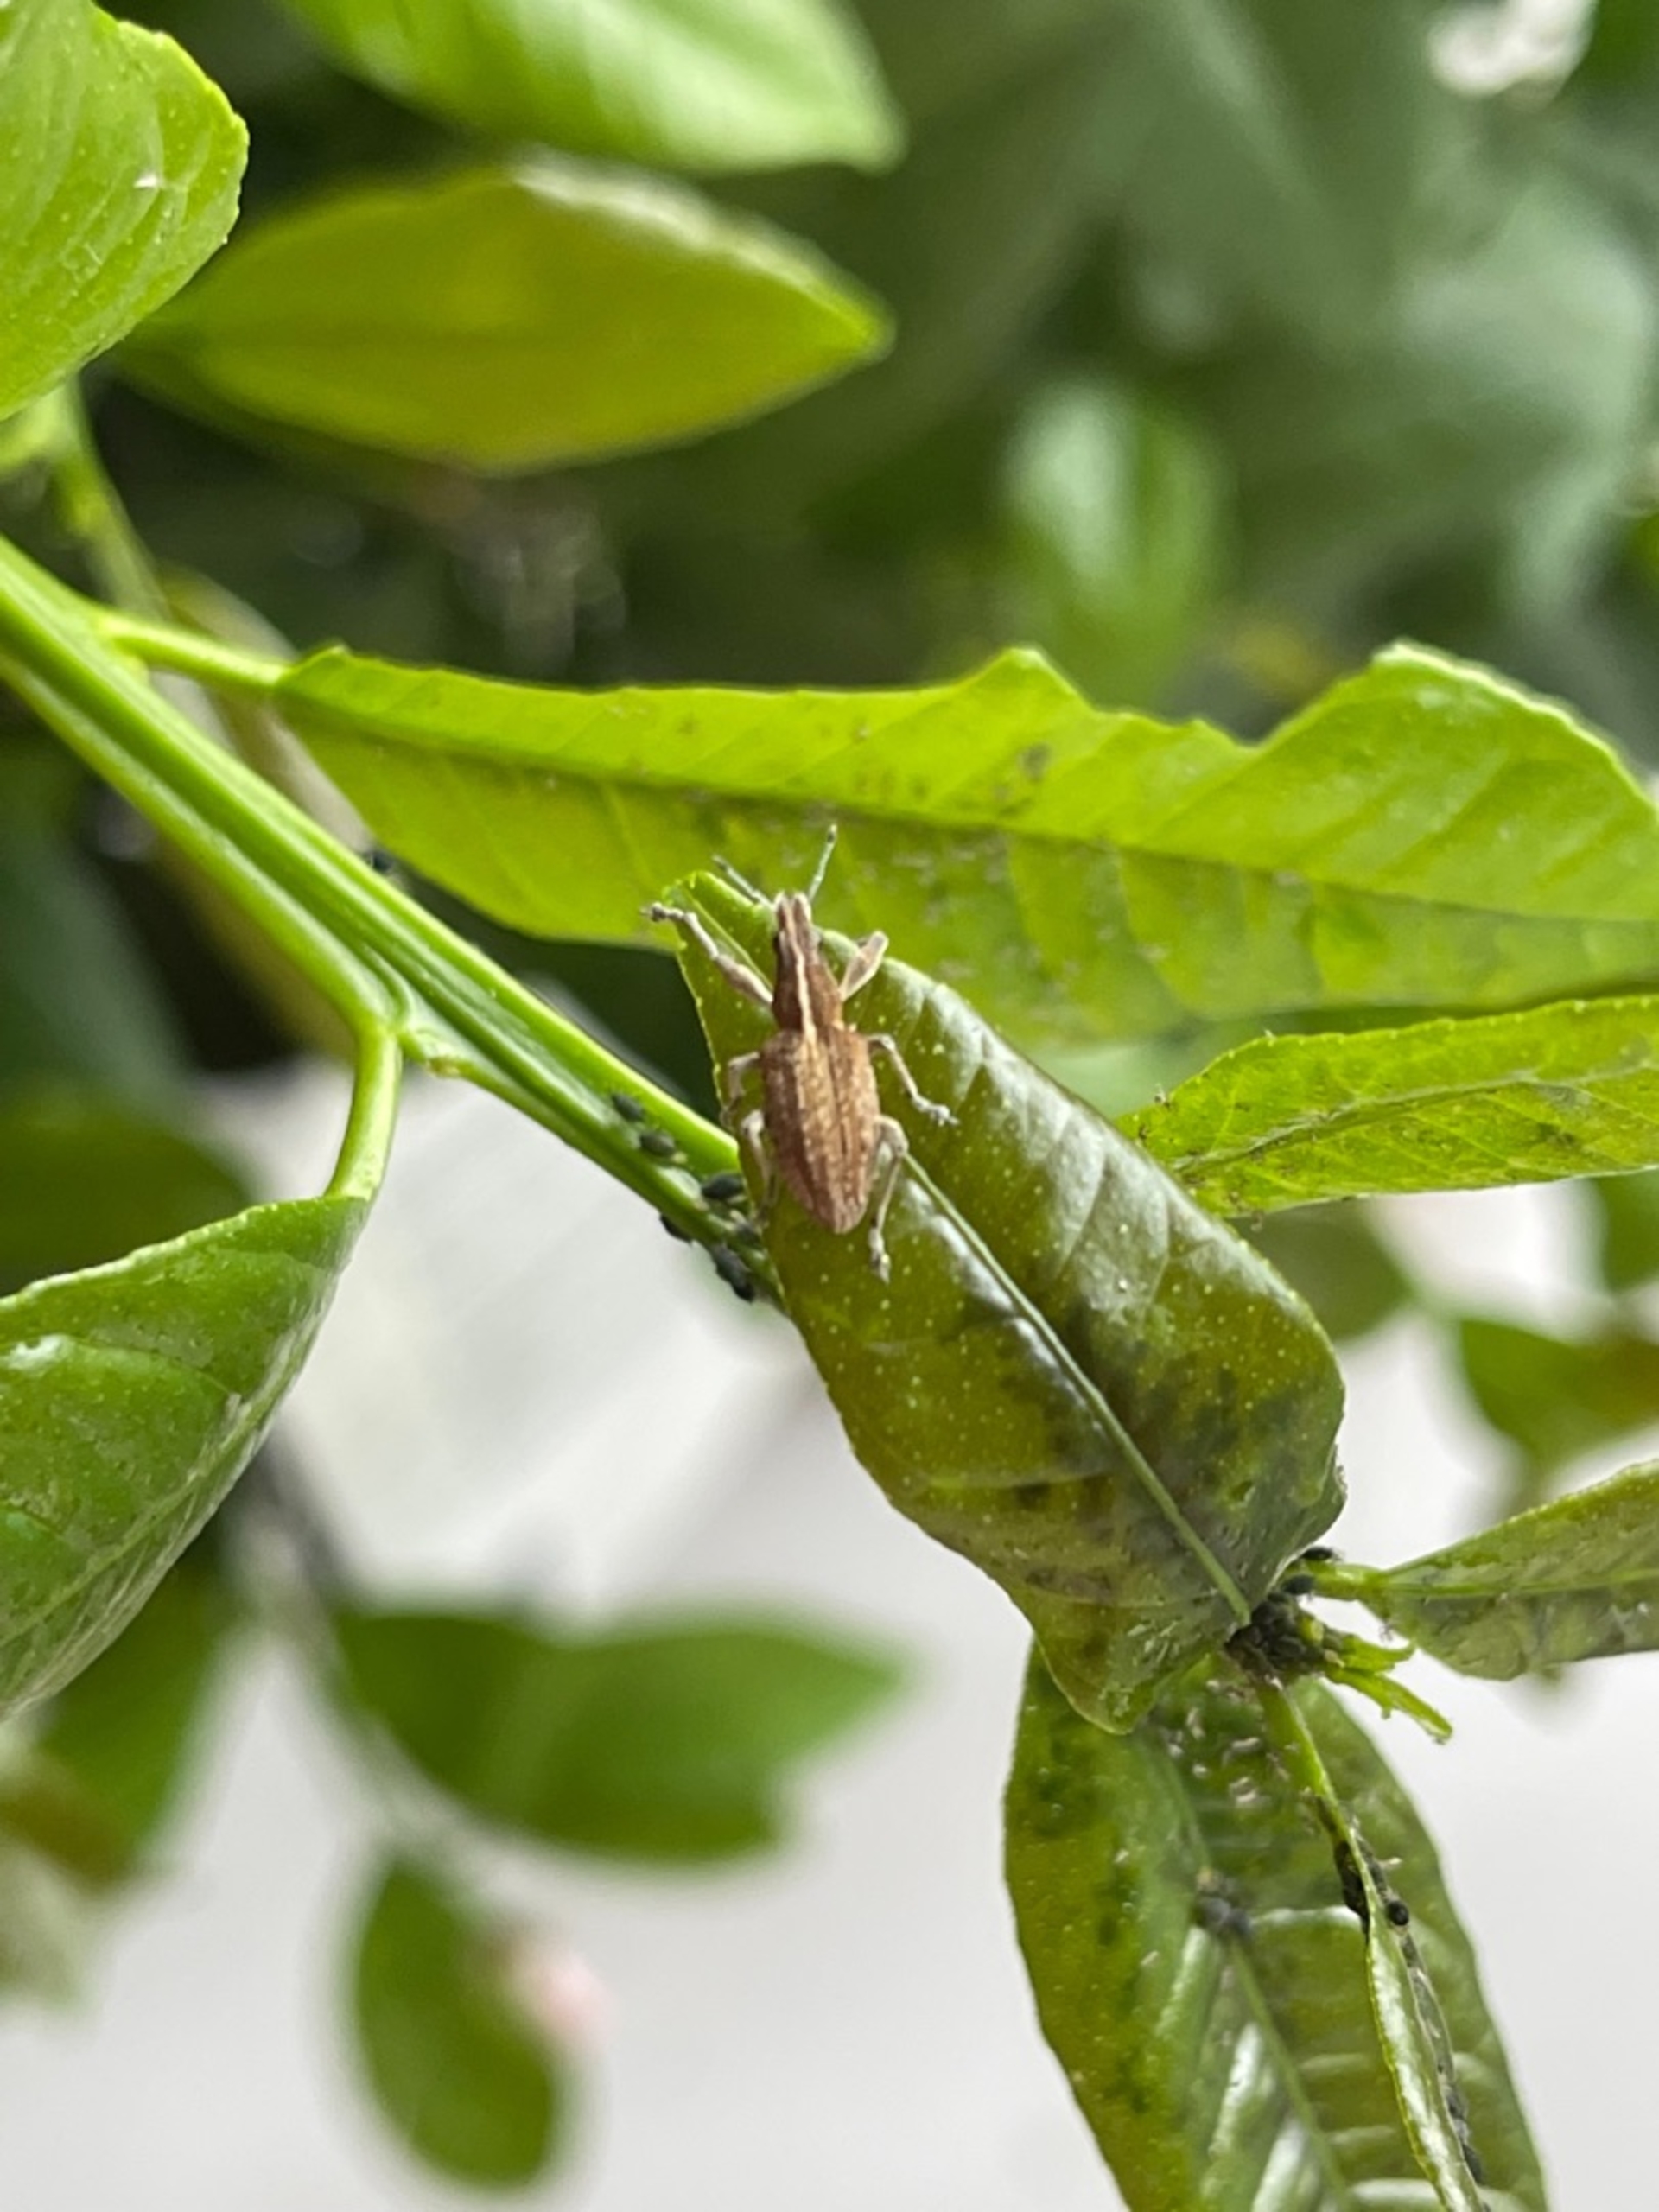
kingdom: Animalia
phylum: Arthropoda
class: Insecta
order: Coleoptera
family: Curculionidae
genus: Charagmus
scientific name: Charagmus gressorius
